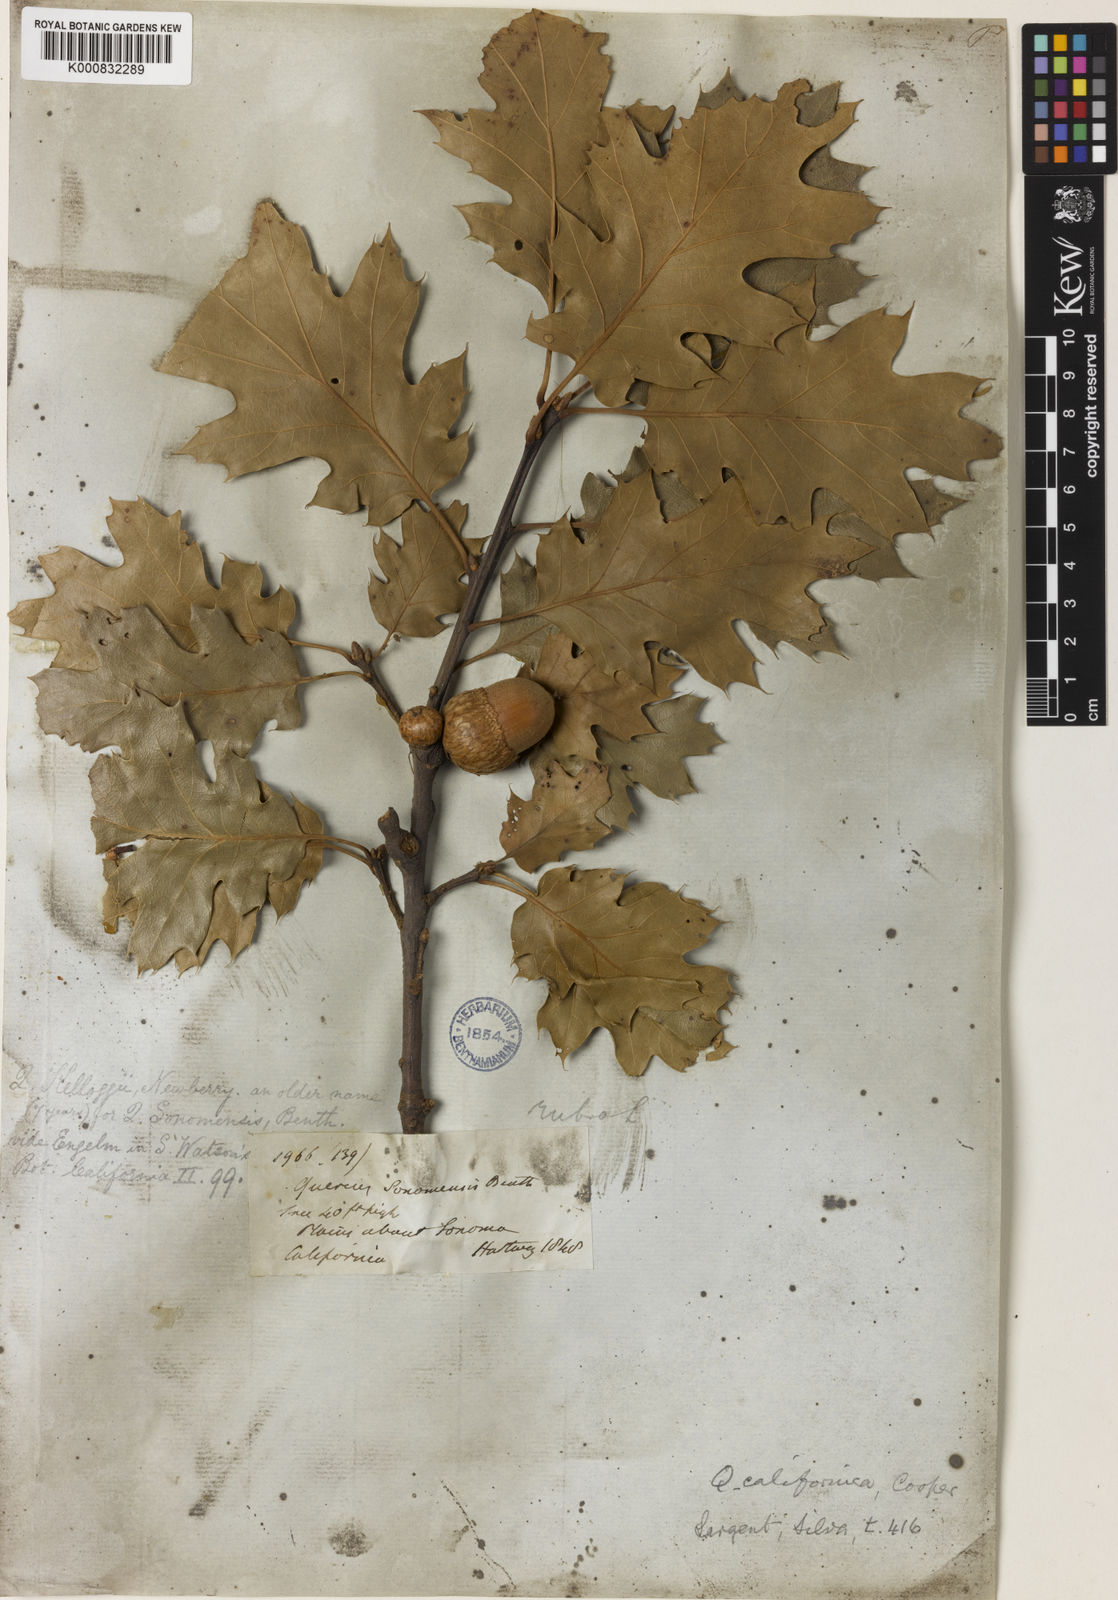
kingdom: Plantae
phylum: Tracheophyta
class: Magnoliopsida
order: Fagales
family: Fagaceae
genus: Quercus
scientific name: Quercus kelloggii
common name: California black oak
